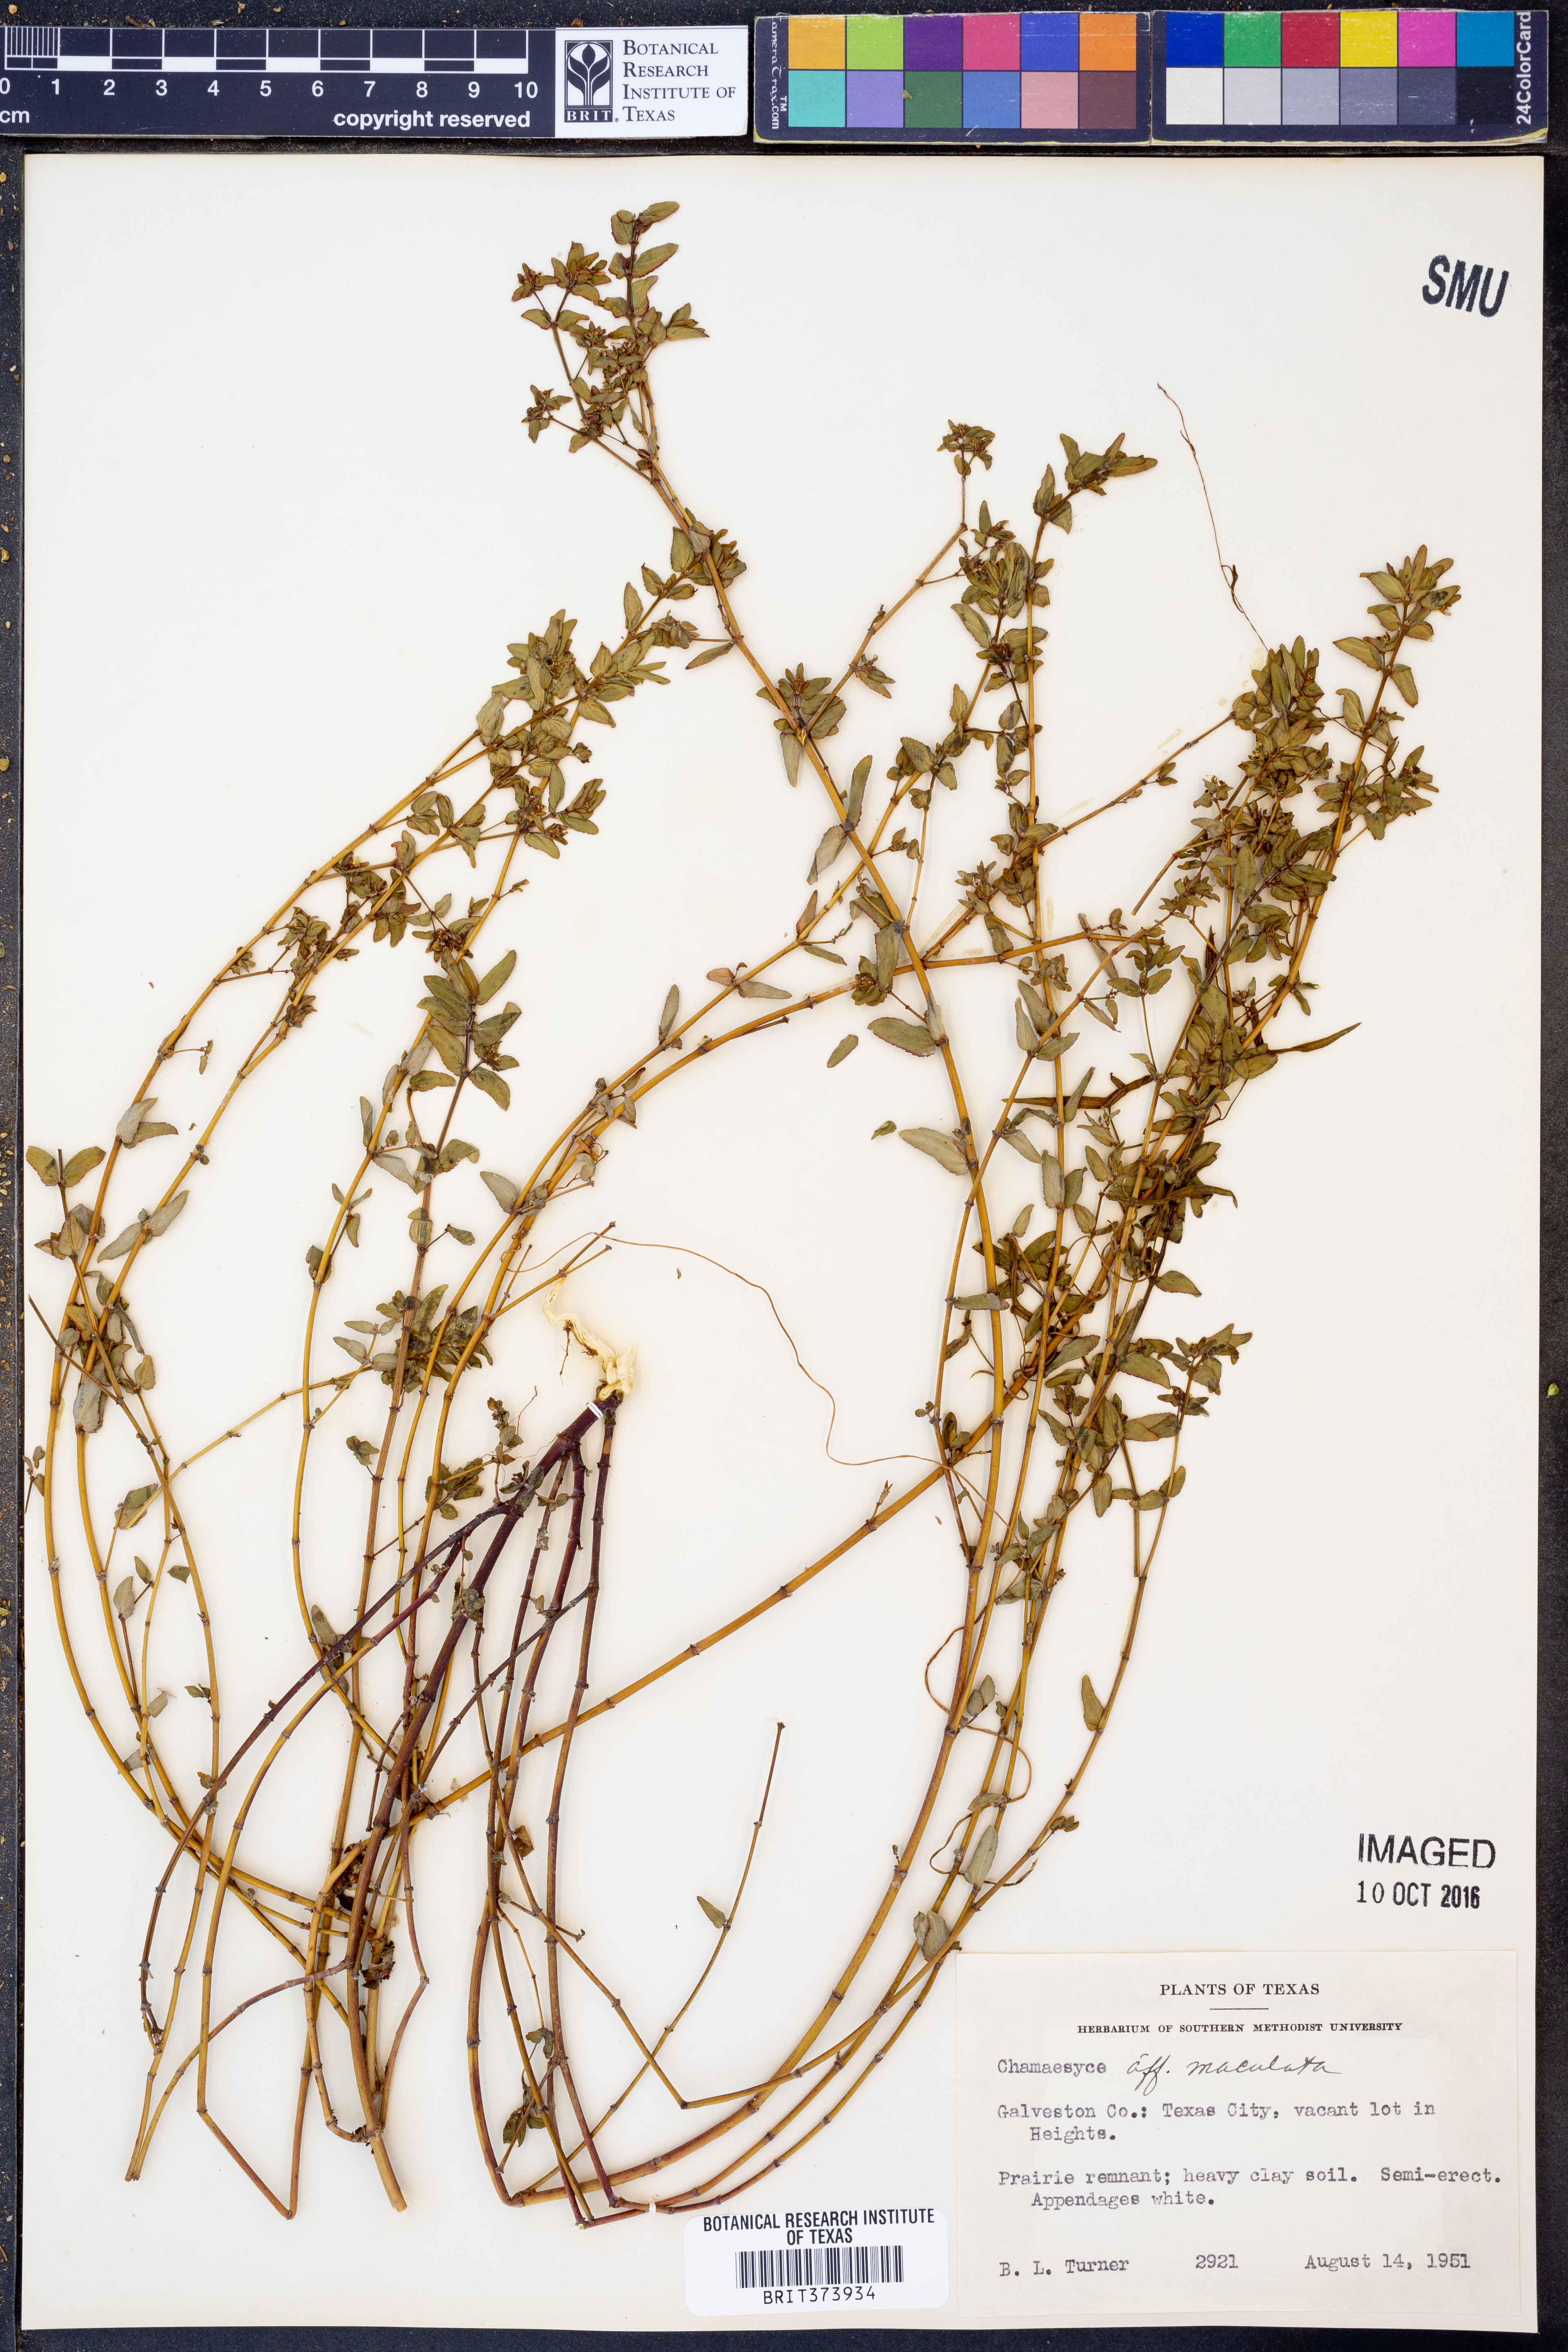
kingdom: Plantae
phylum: Tracheophyta
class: Magnoliopsida
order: Malpighiales
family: Euphorbiaceae
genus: Euphorbia
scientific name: Euphorbia maculata
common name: Spotted spurge
